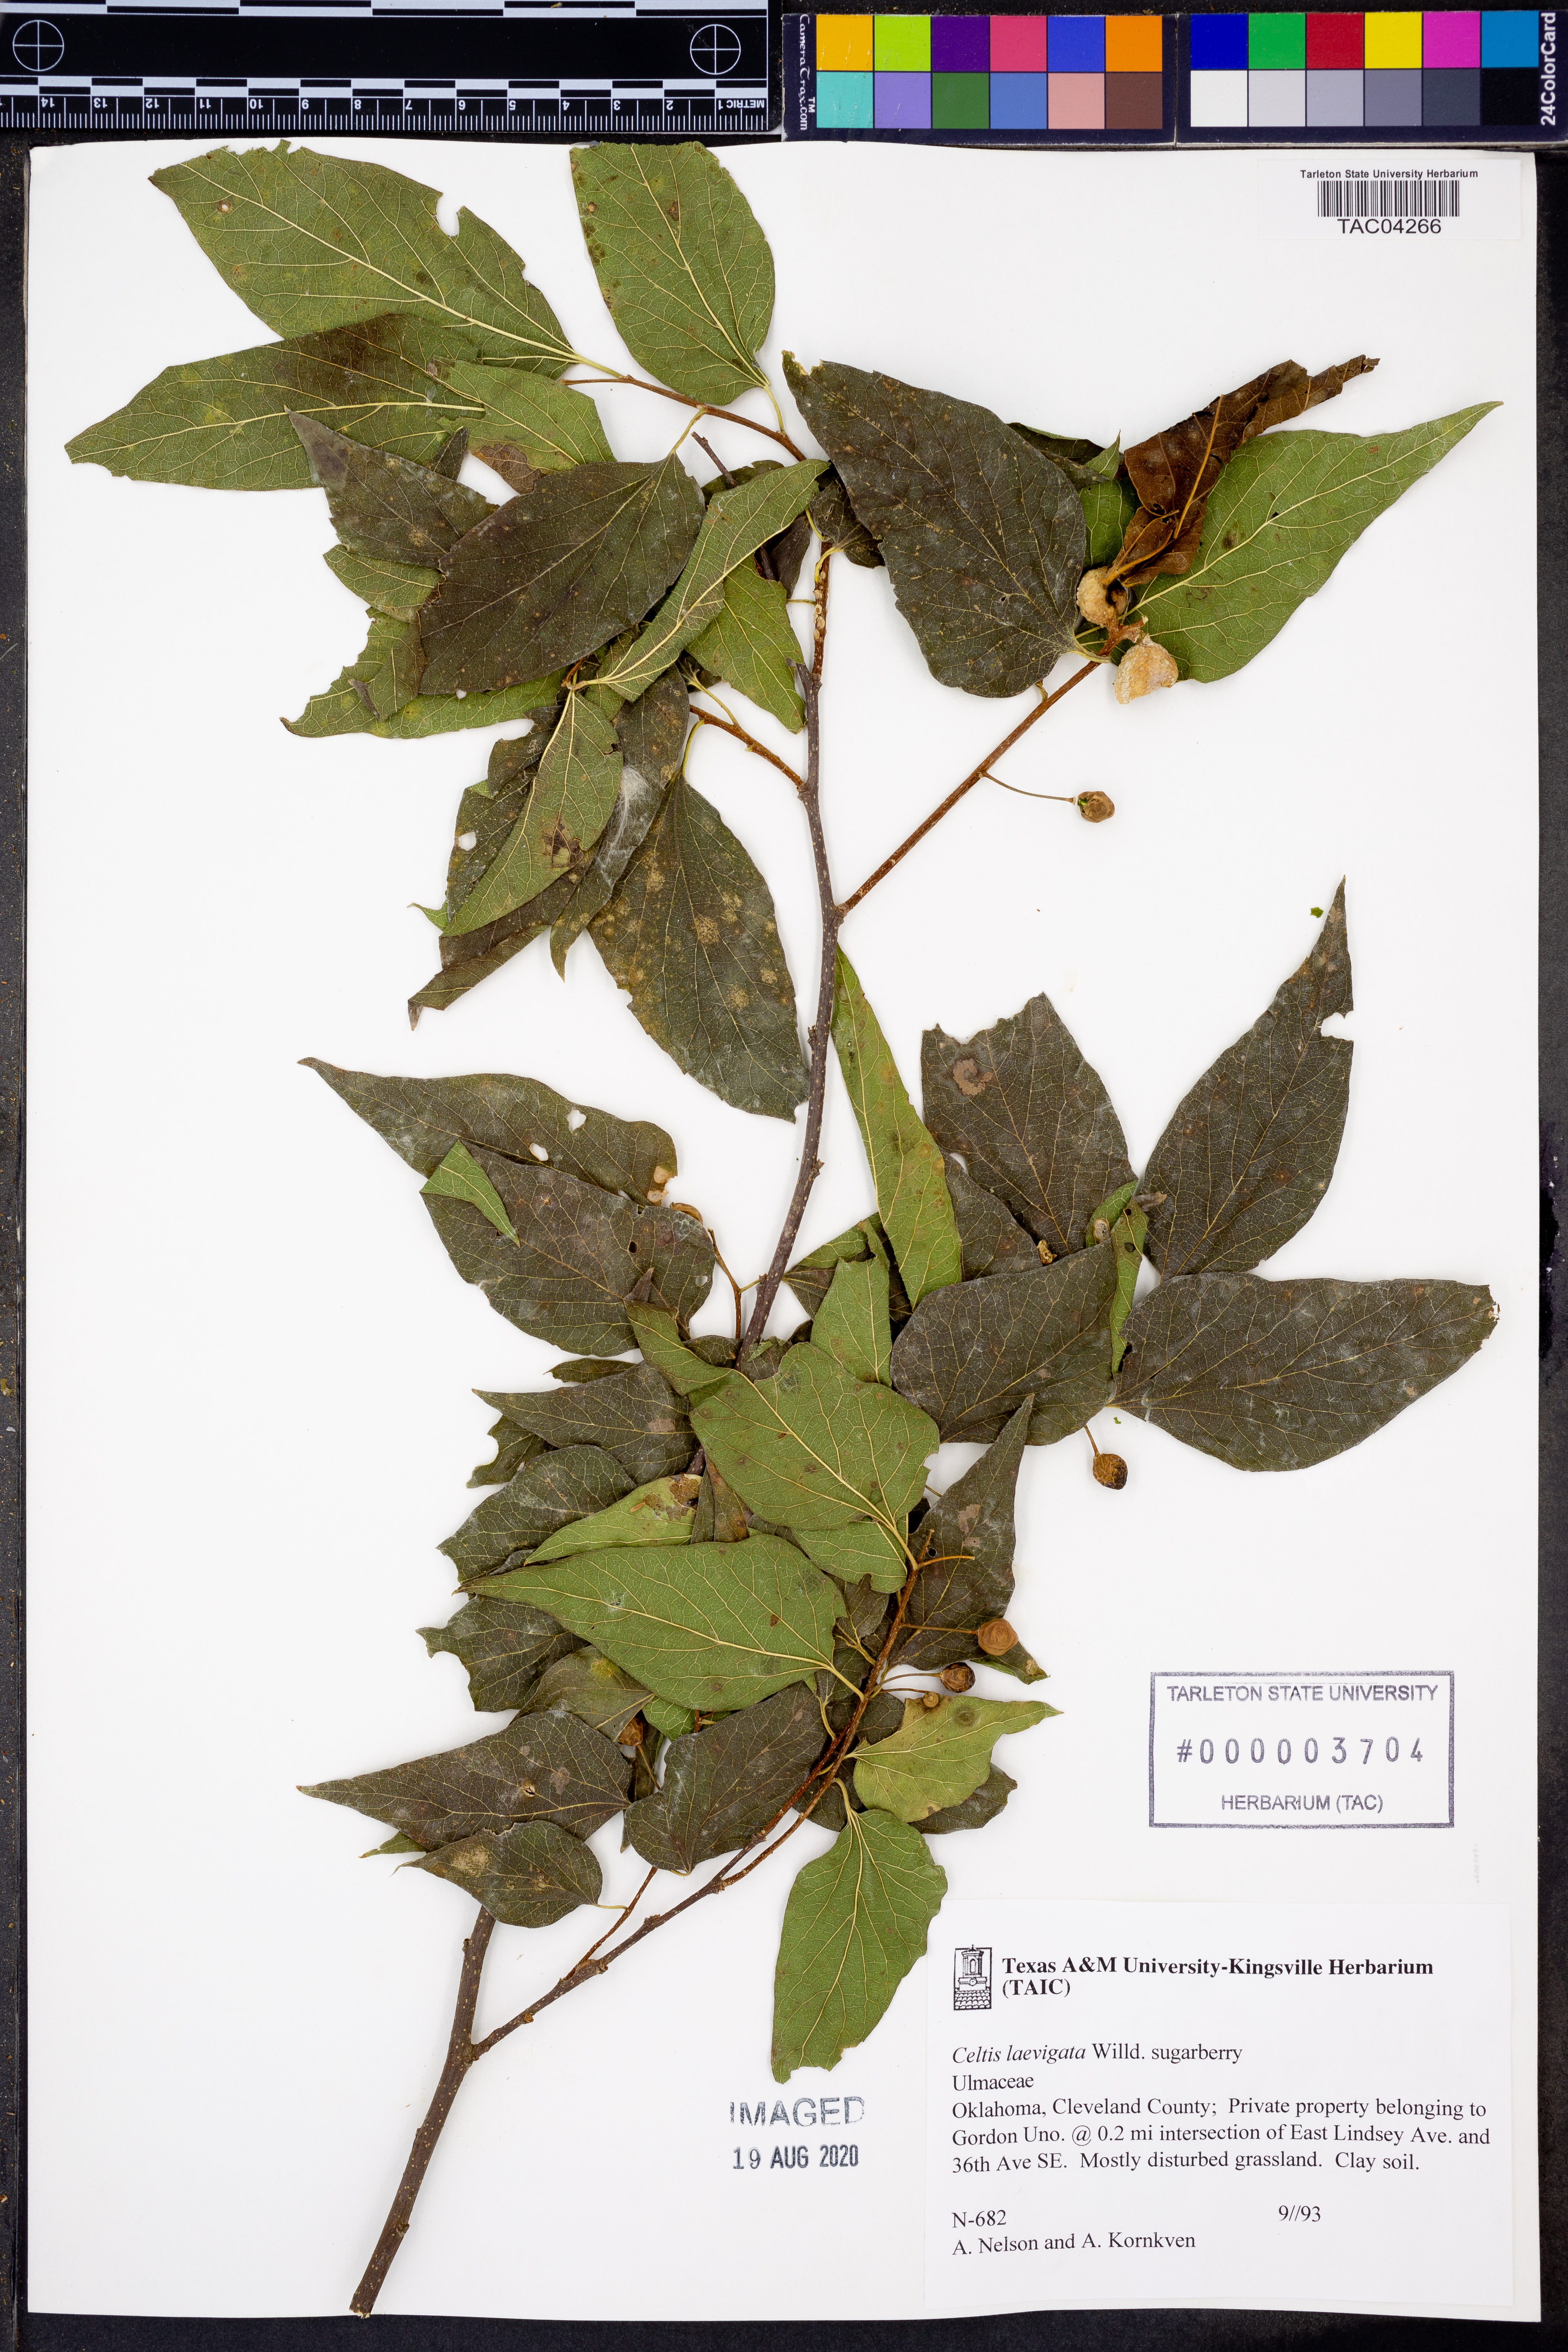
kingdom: Plantae
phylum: Tracheophyta
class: Magnoliopsida
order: Rosales
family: Cannabaceae
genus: Celtis
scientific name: Celtis laevigata
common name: Sugarberry
